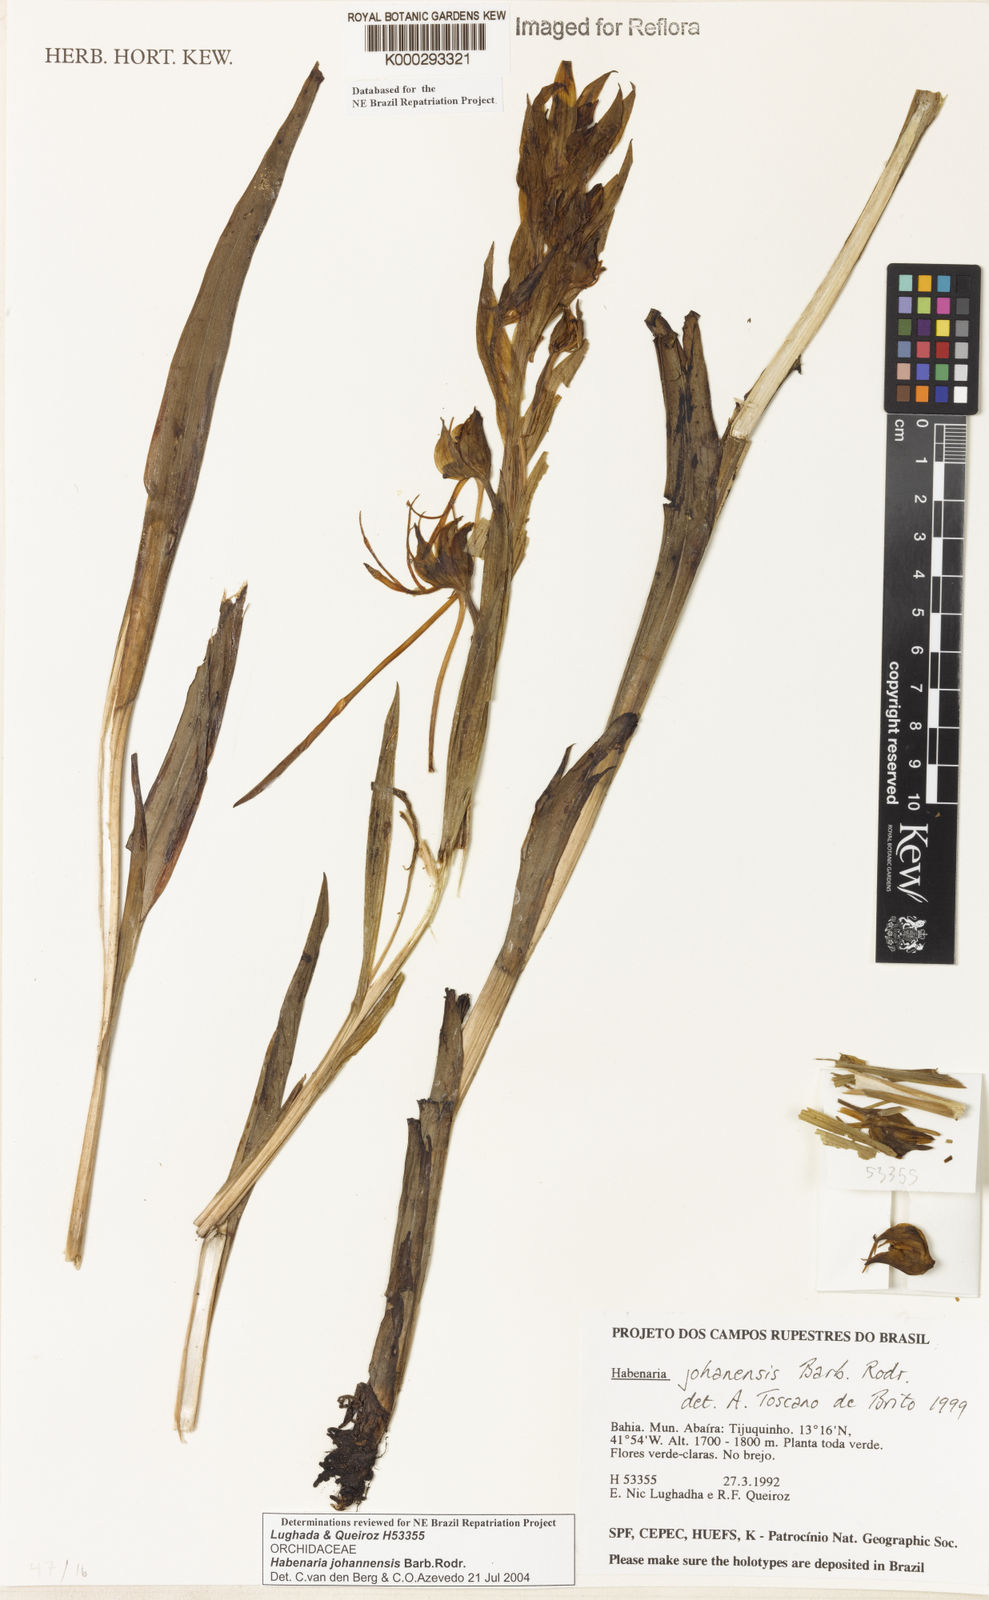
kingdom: Plantae
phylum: Tracheophyta
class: Liliopsida
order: Asparagales
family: Orchidaceae
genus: Habenaria
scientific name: Habenaria johannensis
